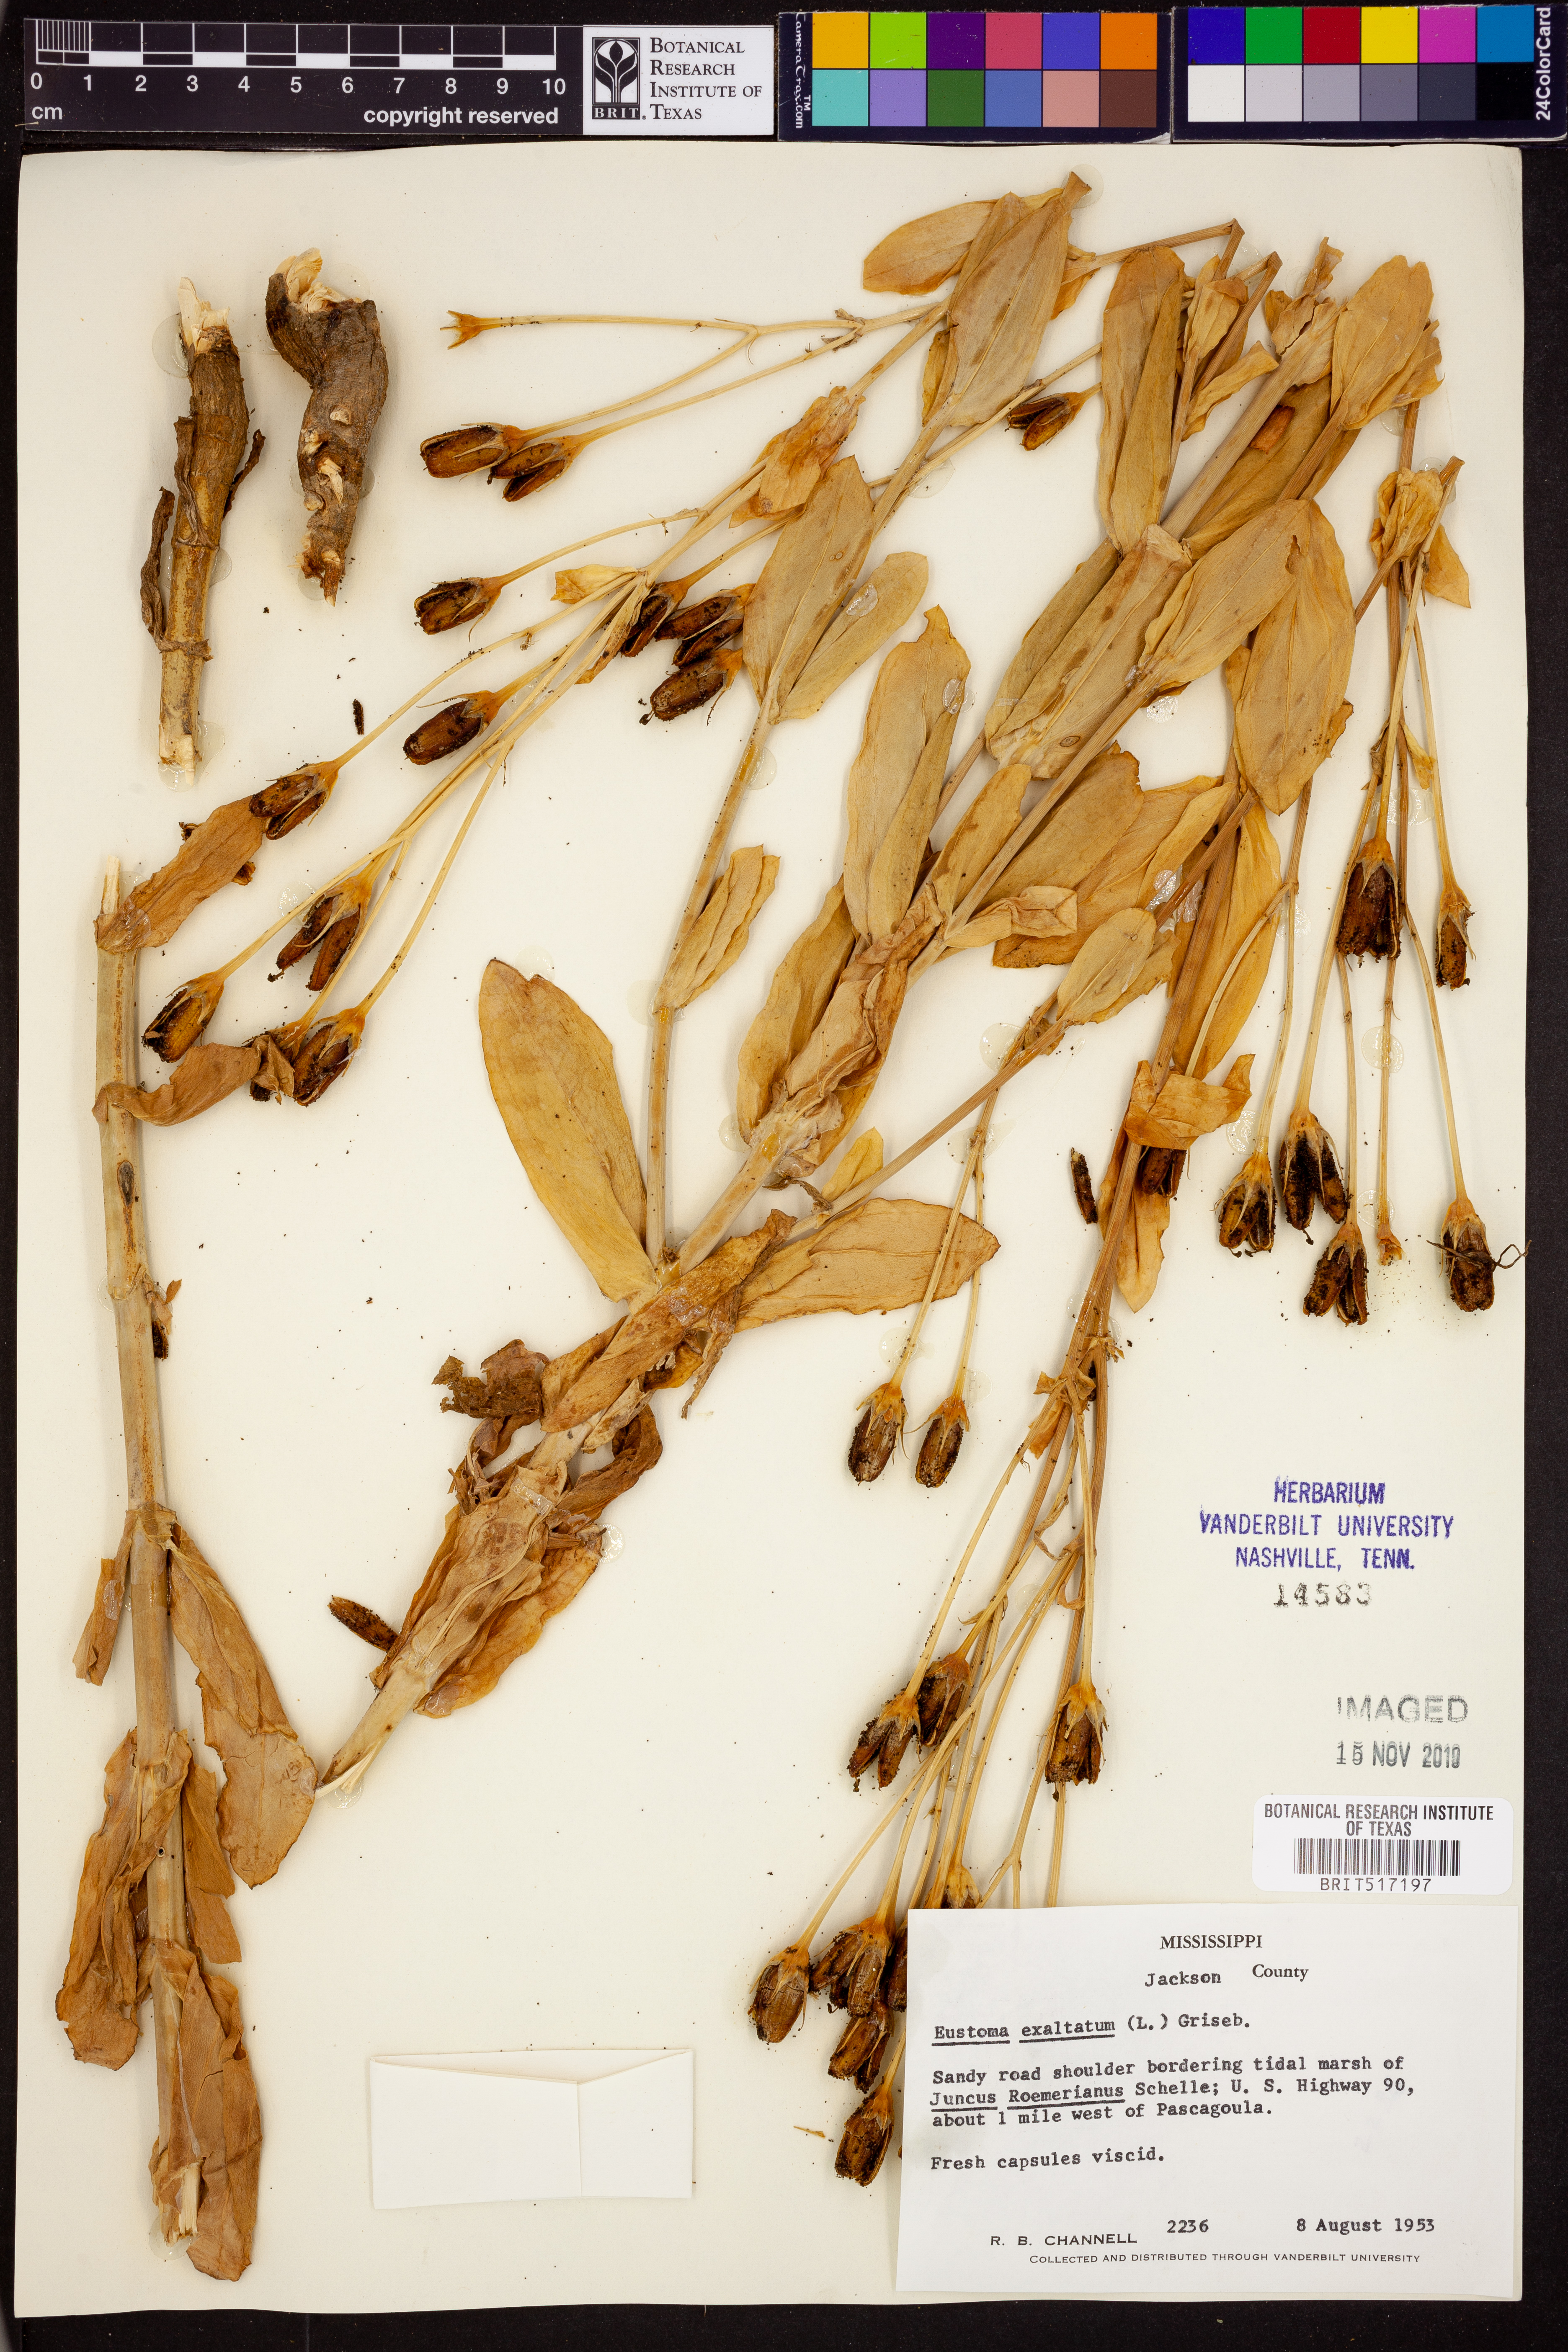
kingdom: Plantae
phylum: Tracheophyta
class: Magnoliopsida
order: Gentianales
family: Gentianaceae
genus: Eustoma
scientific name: Eustoma exaltatum
